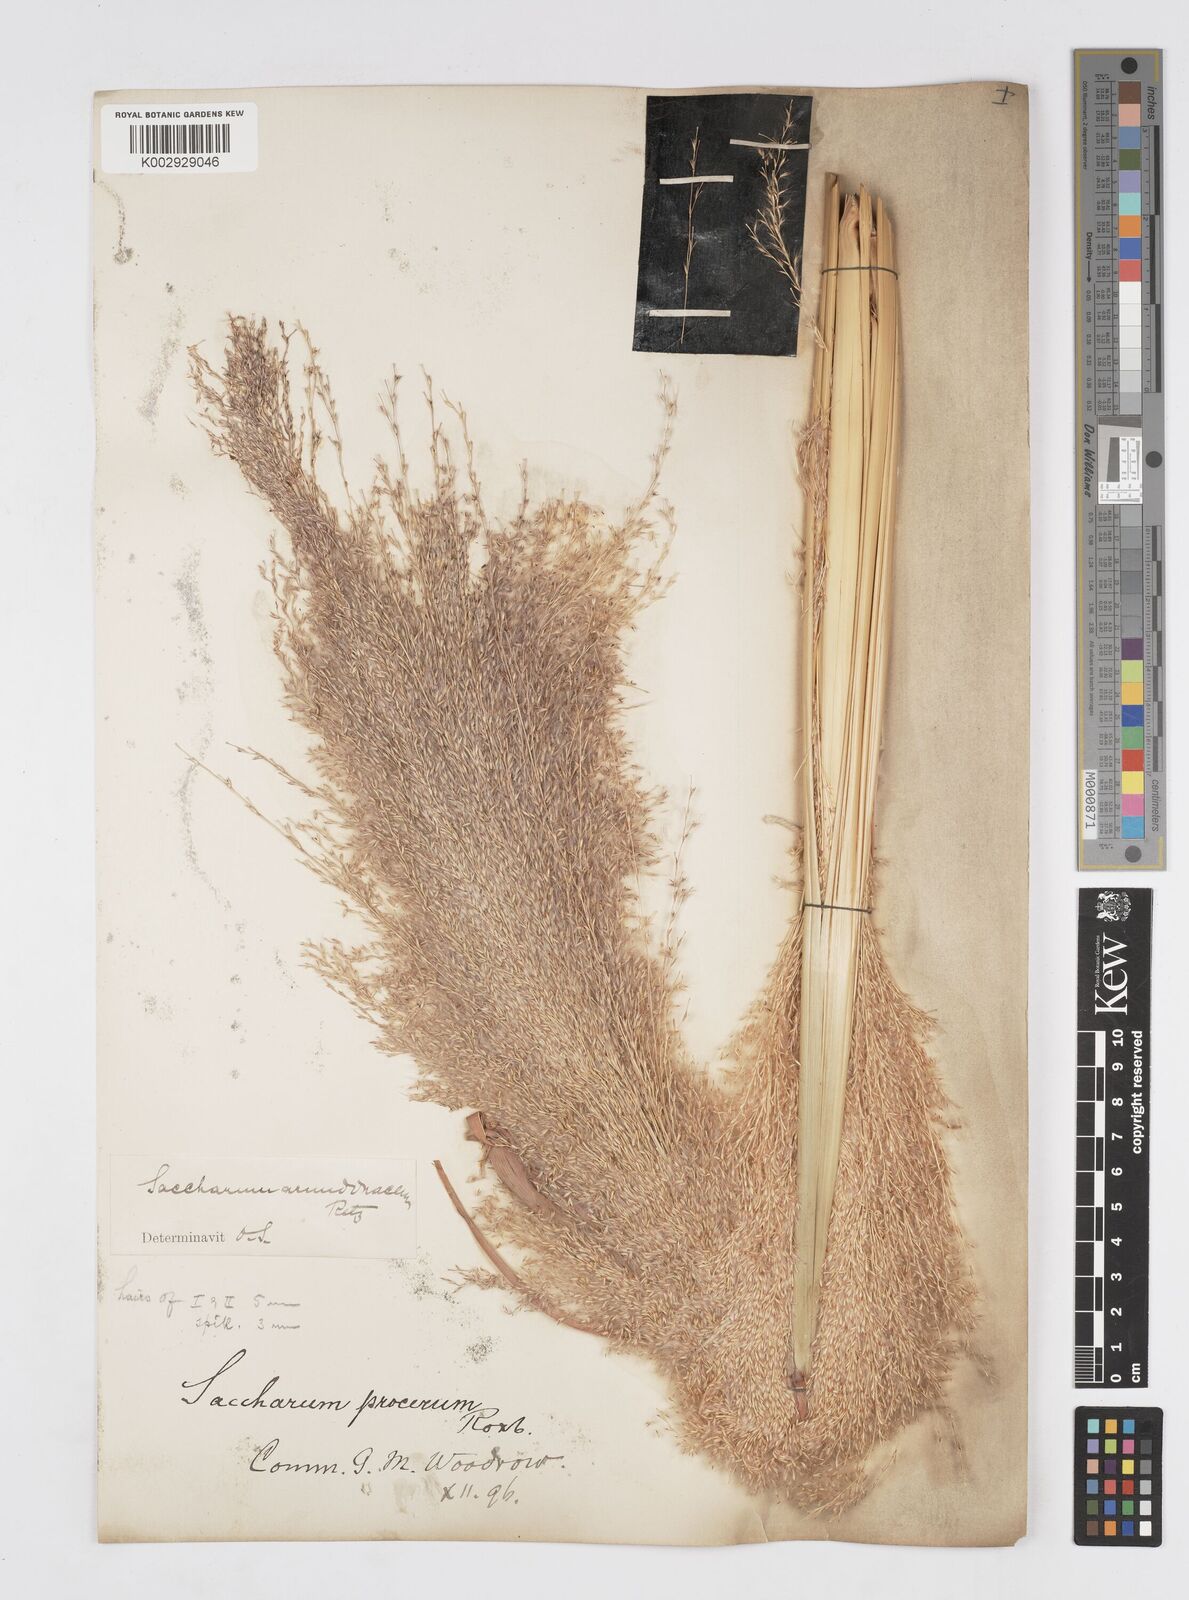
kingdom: Plantae
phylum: Tracheophyta
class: Liliopsida
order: Poales
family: Poaceae
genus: Tripidium
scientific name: Tripidium arundinaceum
